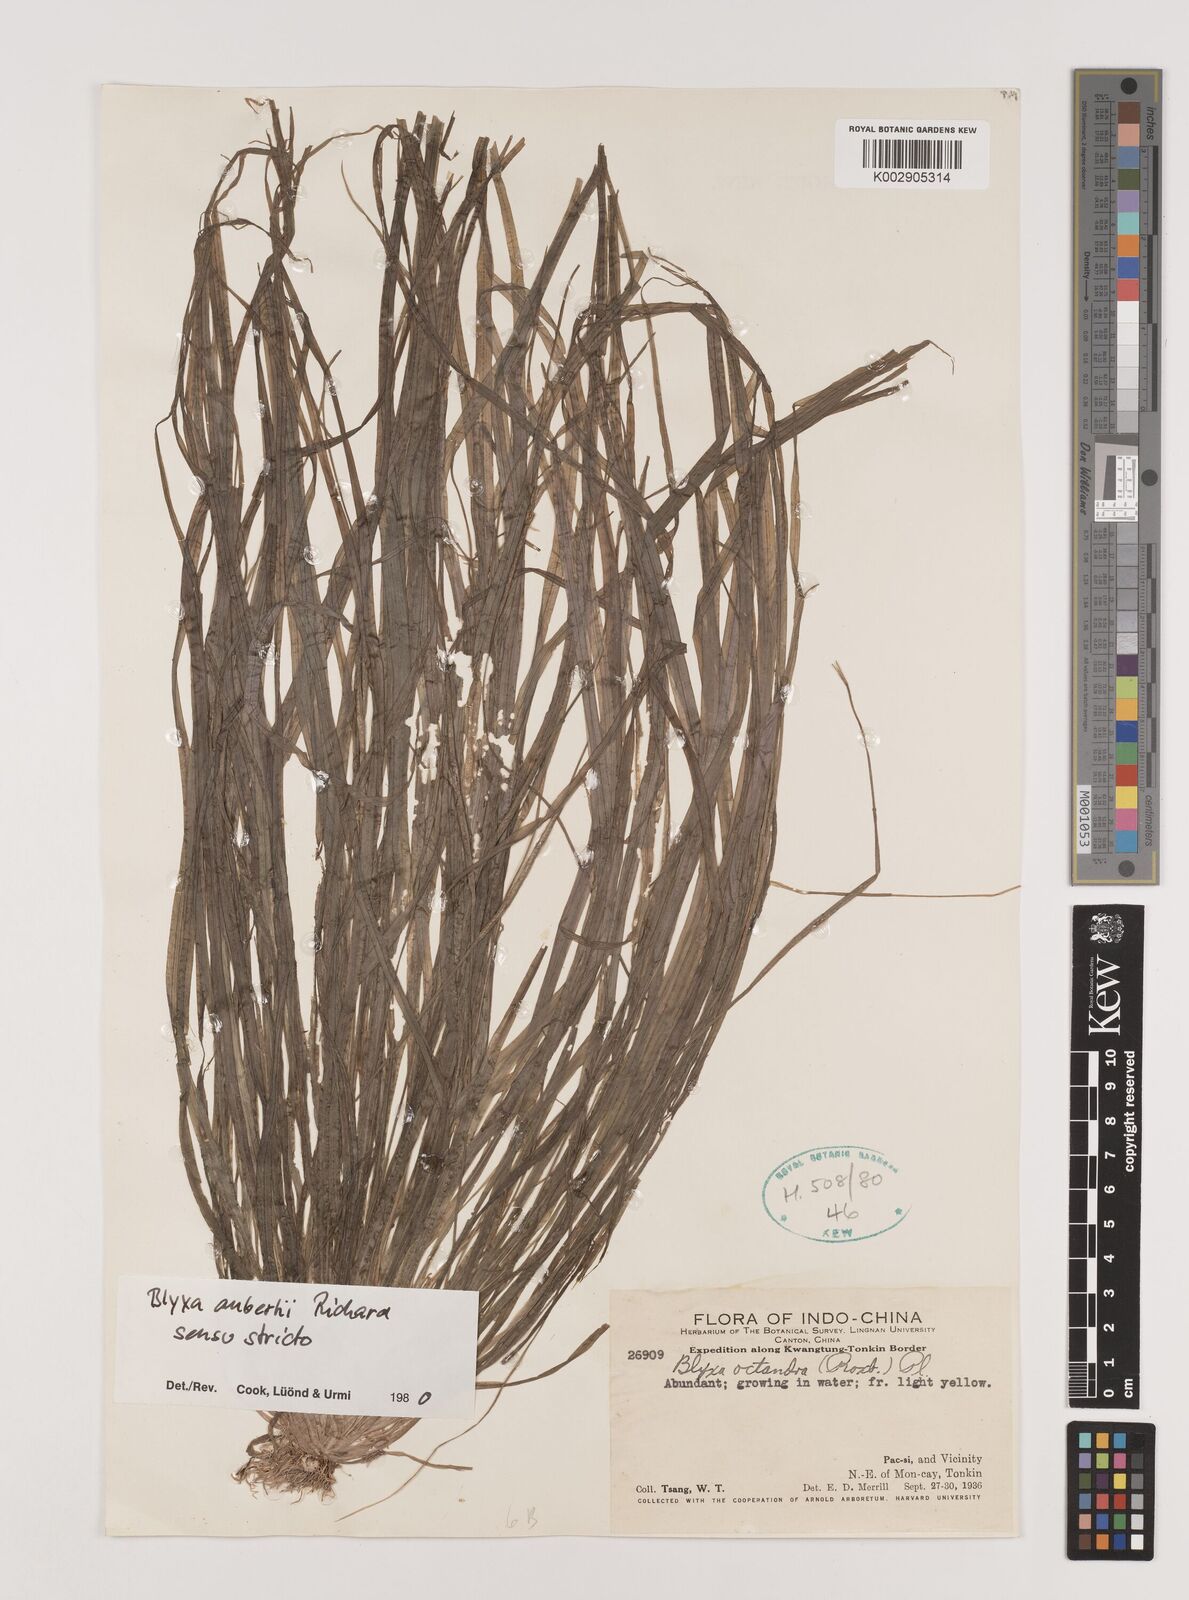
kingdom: Plantae
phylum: Tracheophyta
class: Liliopsida
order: Alismatales
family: Hydrocharitaceae
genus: Blyxa
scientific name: Blyxa aubertii
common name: Roundfruit blyxa
